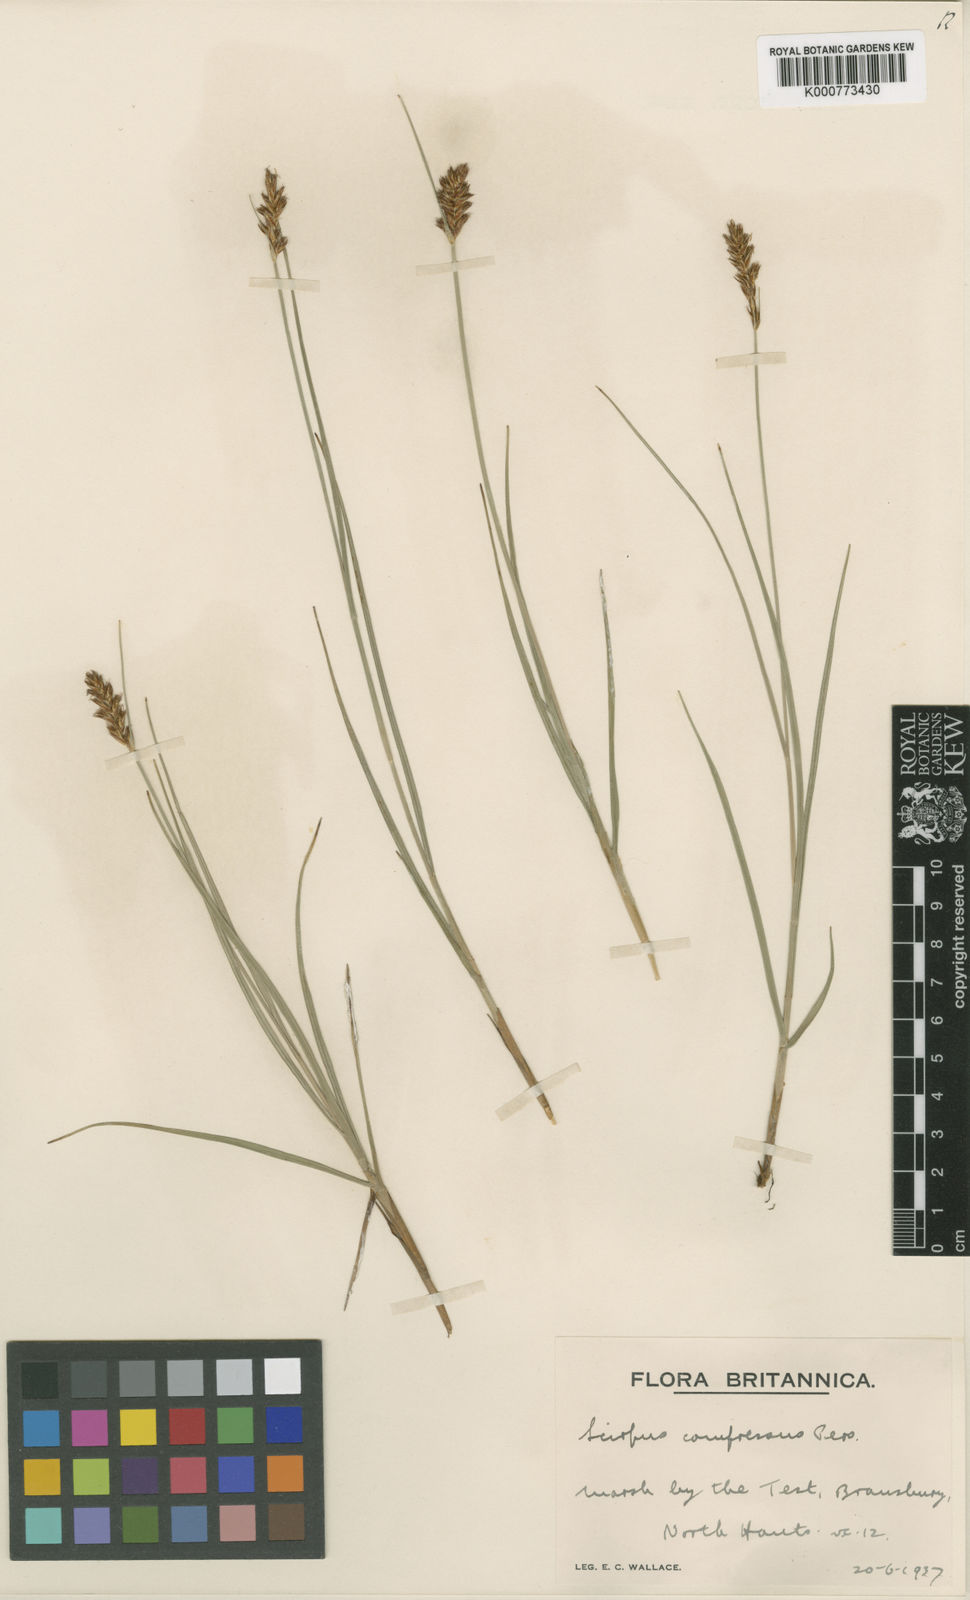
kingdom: Plantae
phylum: Tracheophyta
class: Liliopsida
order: Poales
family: Cyperaceae
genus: Blysmus
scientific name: Blysmus compressus
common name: Flat-sedge
